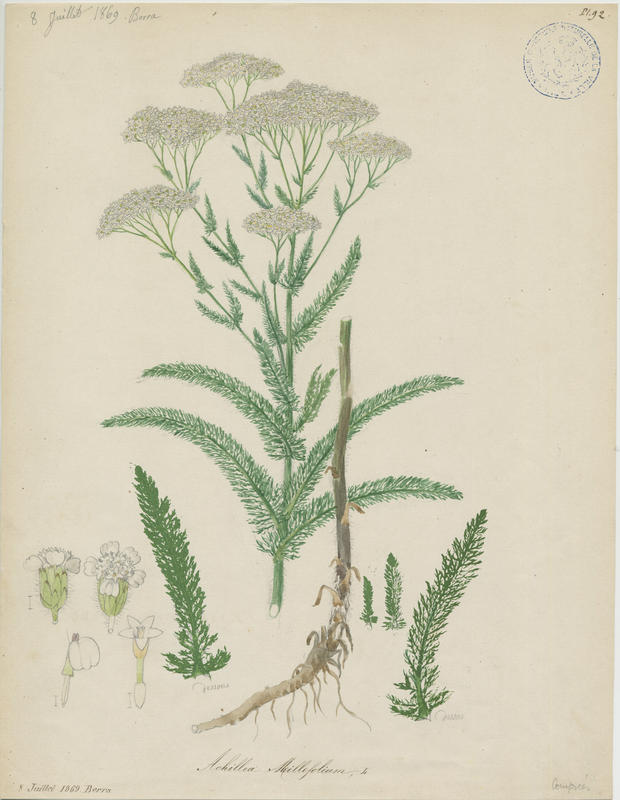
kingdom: Plantae
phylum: Tracheophyta
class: Magnoliopsida
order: Asterales
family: Asteraceae
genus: Achillea
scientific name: Achillea millefolium
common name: Yarrow
